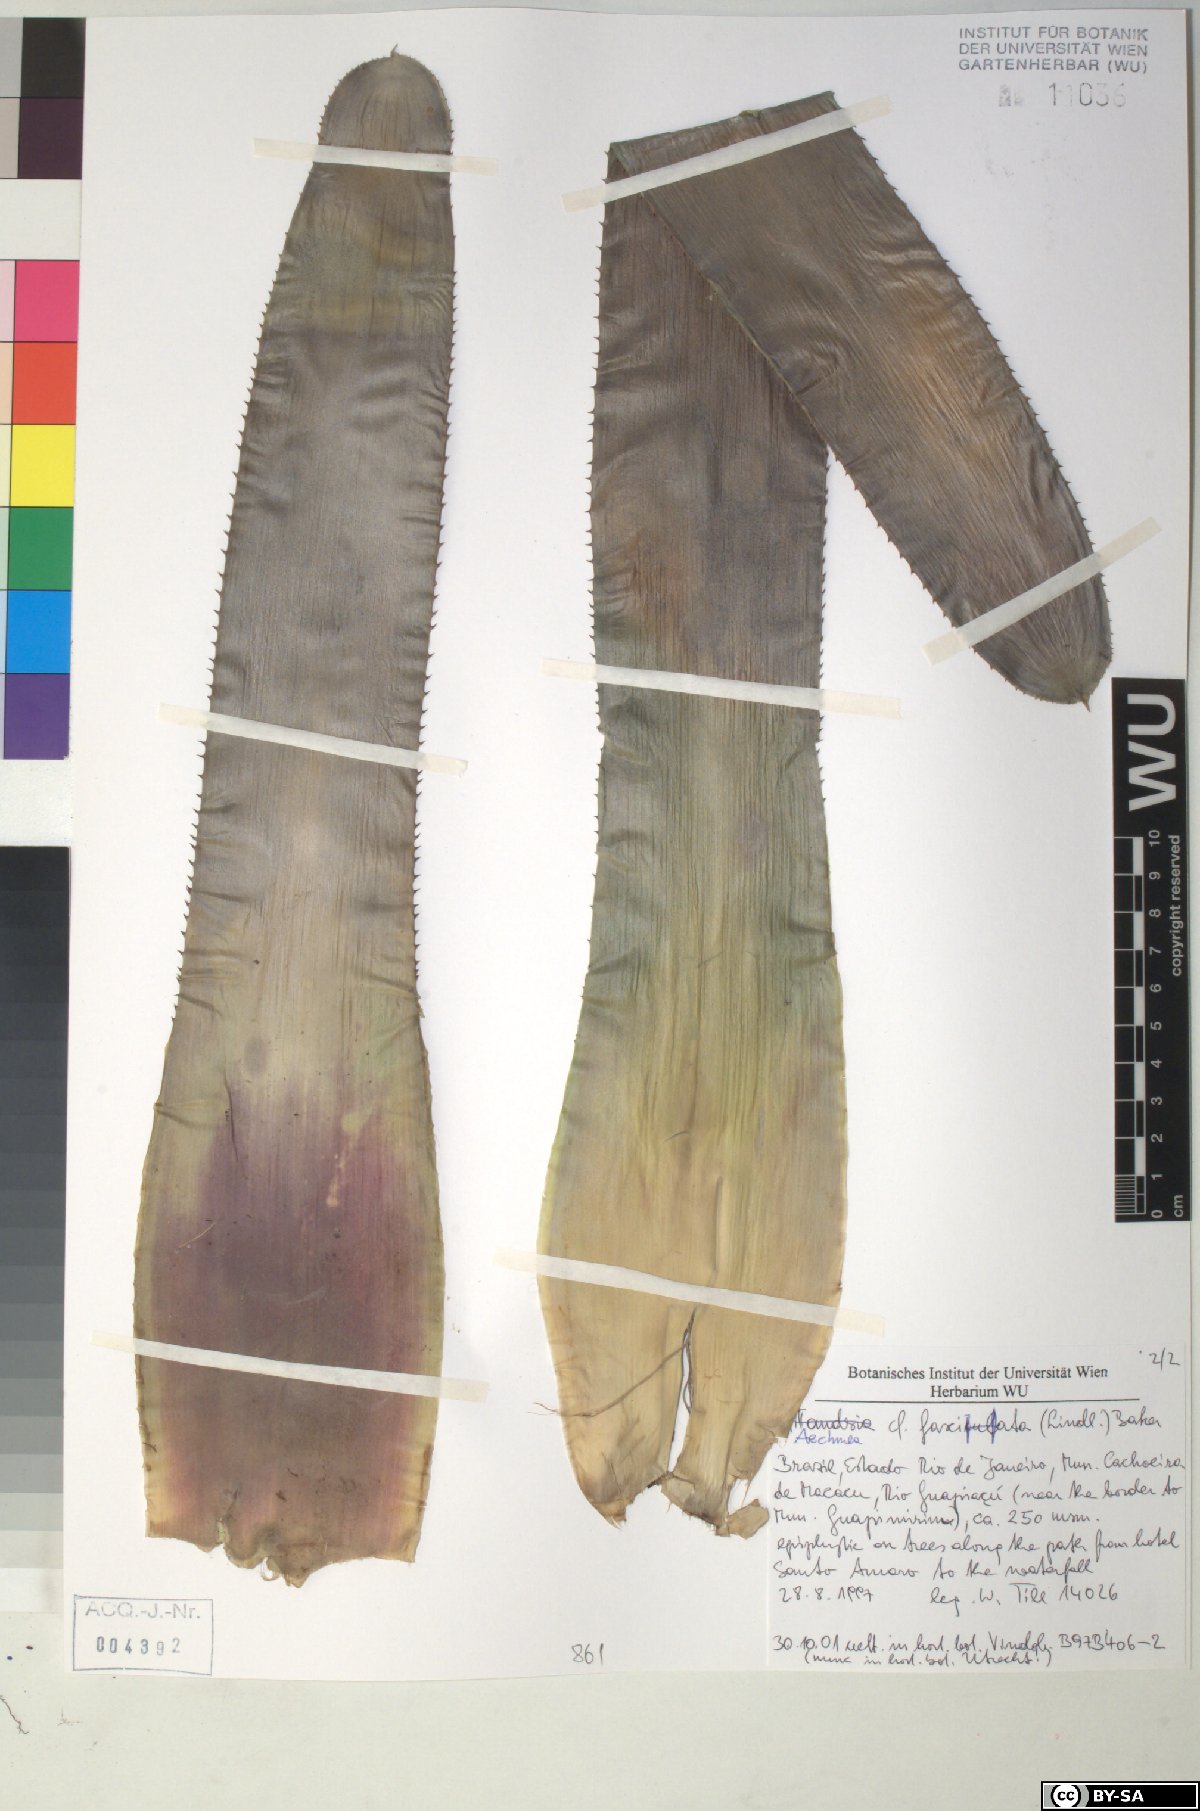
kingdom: Plantae
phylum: Tracheophyta
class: Liliopsida
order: Poales
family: Bromeliaceae
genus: Aechmea
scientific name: Aechmea fasciata
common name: Urnplant
